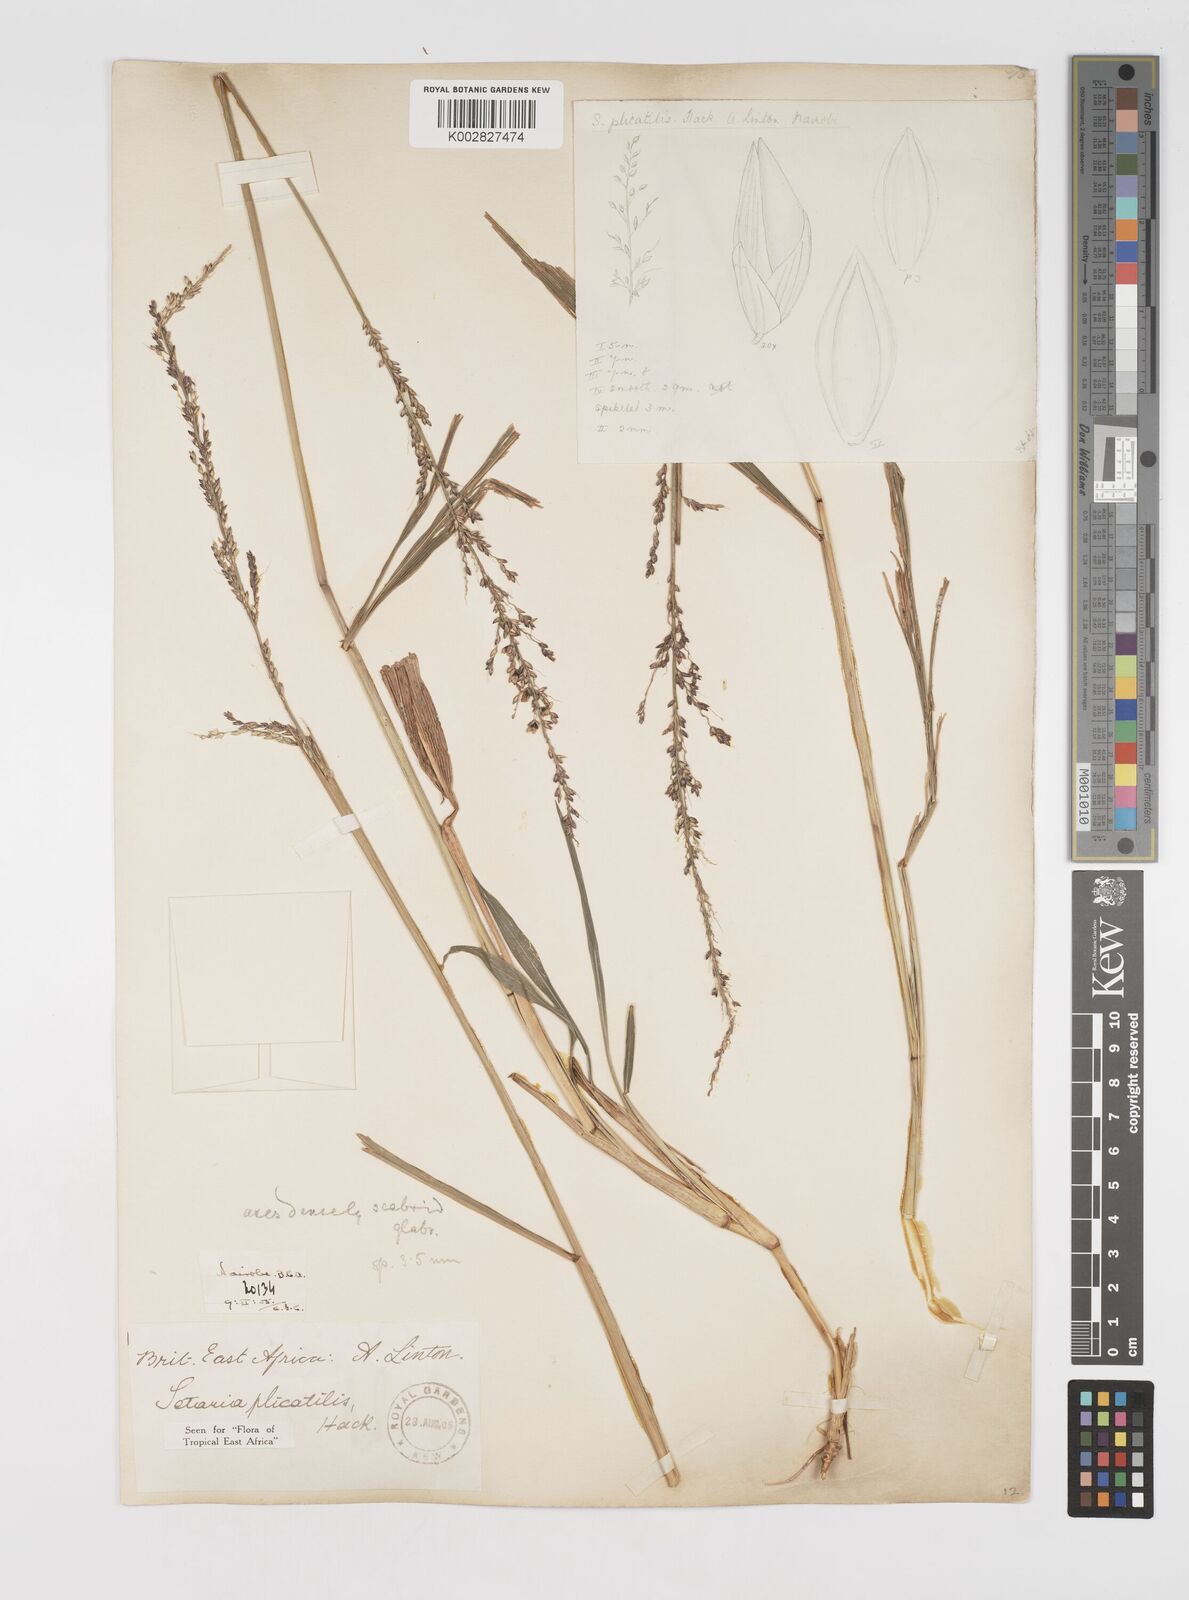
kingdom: Plantae
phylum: Tracheophyta
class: Liliopsida
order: Poales
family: Poaceae
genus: Setaria
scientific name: Setaria megaphylla
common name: Bigleaf bristlegrass
